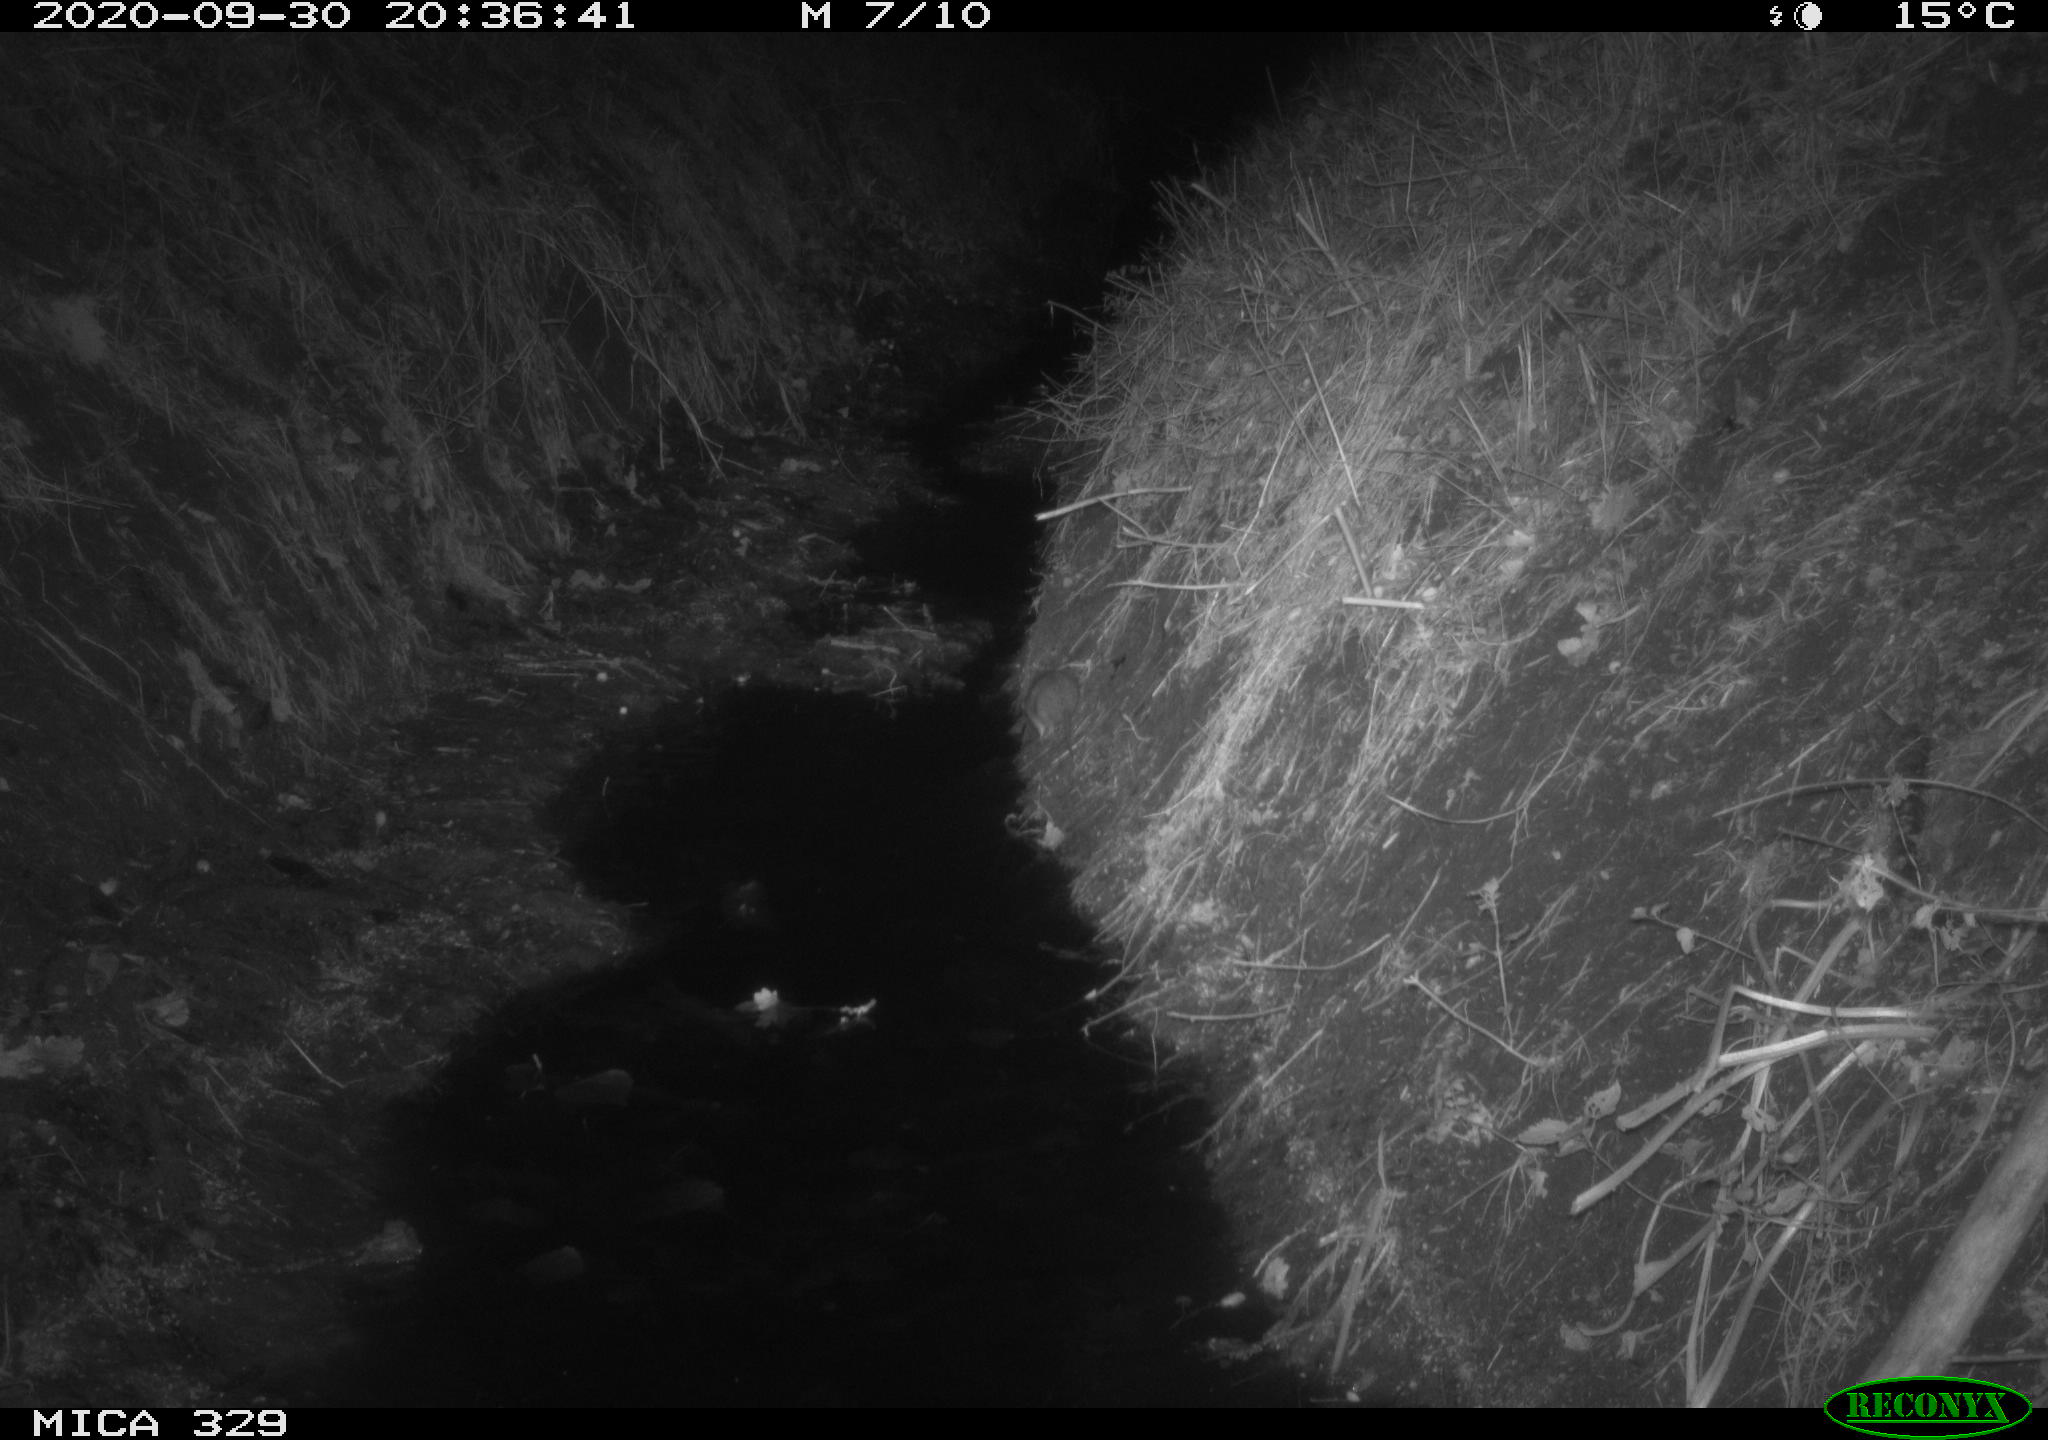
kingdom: Animalia
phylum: Chordata
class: Mammalia
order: Rodentia
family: Muridae
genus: Rattus
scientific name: Rattus norvegicus
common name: Brown rat
